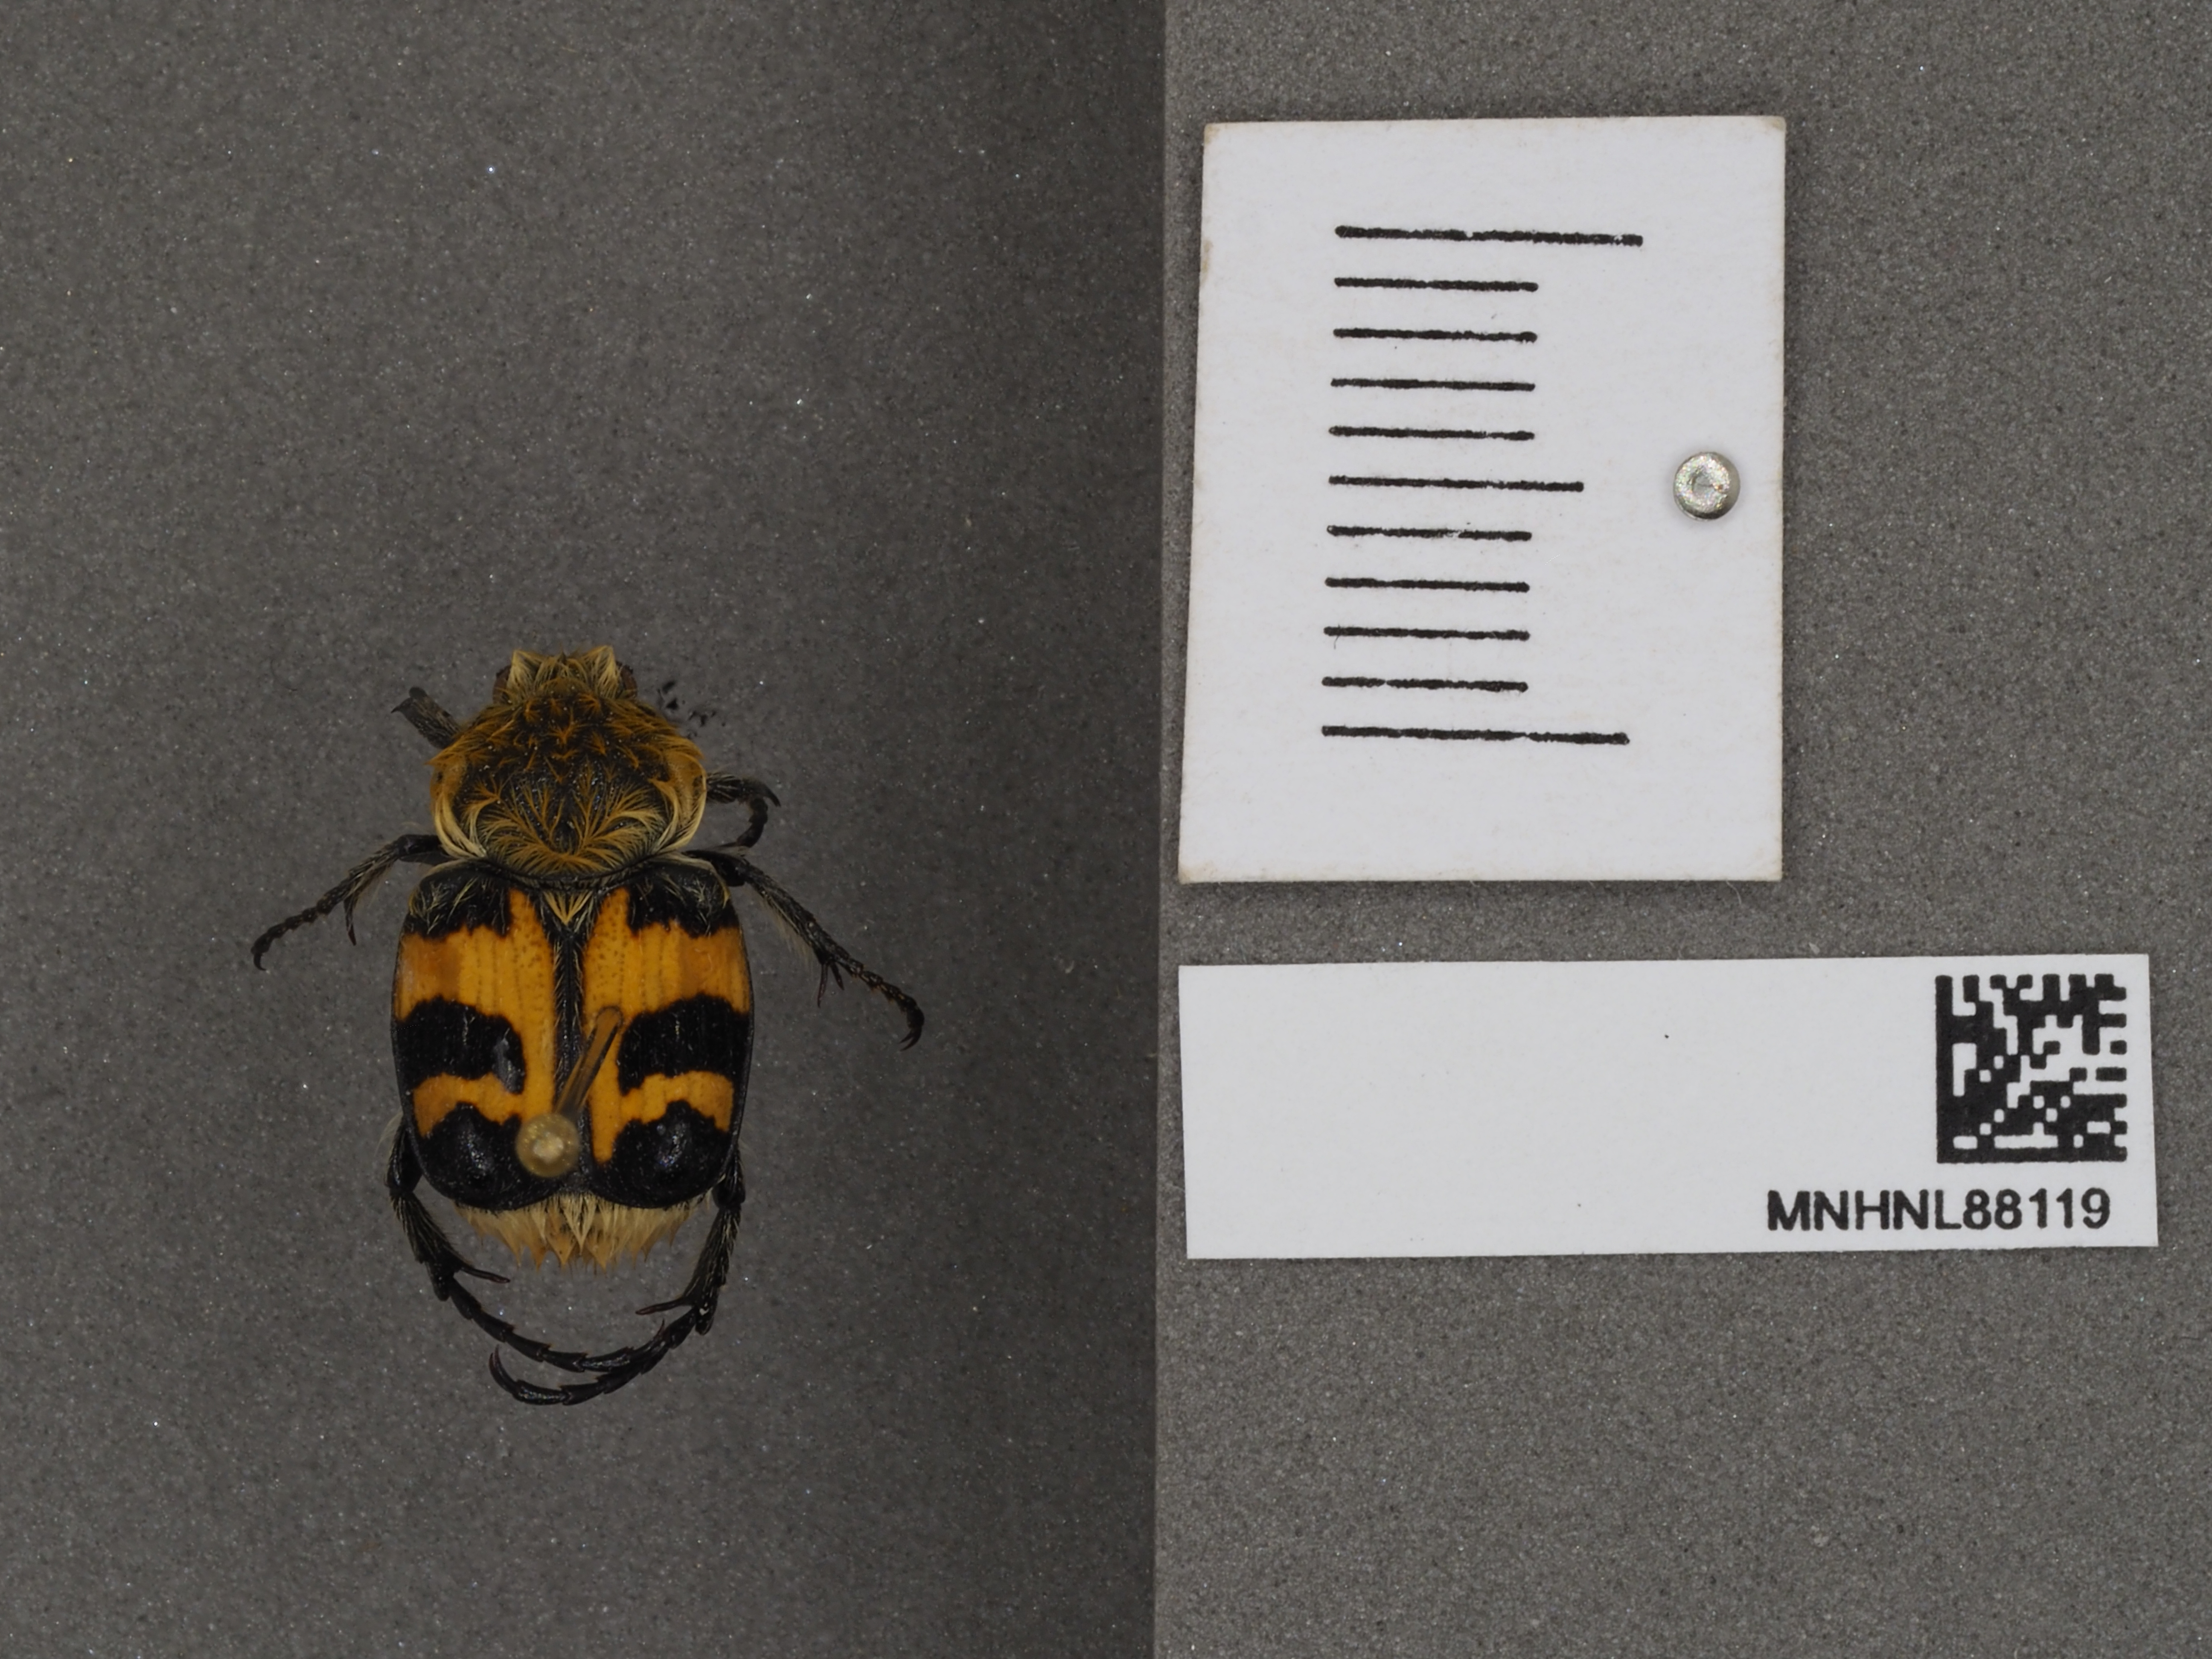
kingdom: Animalia
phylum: Arthropoda
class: Insecta
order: Coleoptera
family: Scarabaeidae
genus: Trichius
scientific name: Trichius gallicus
